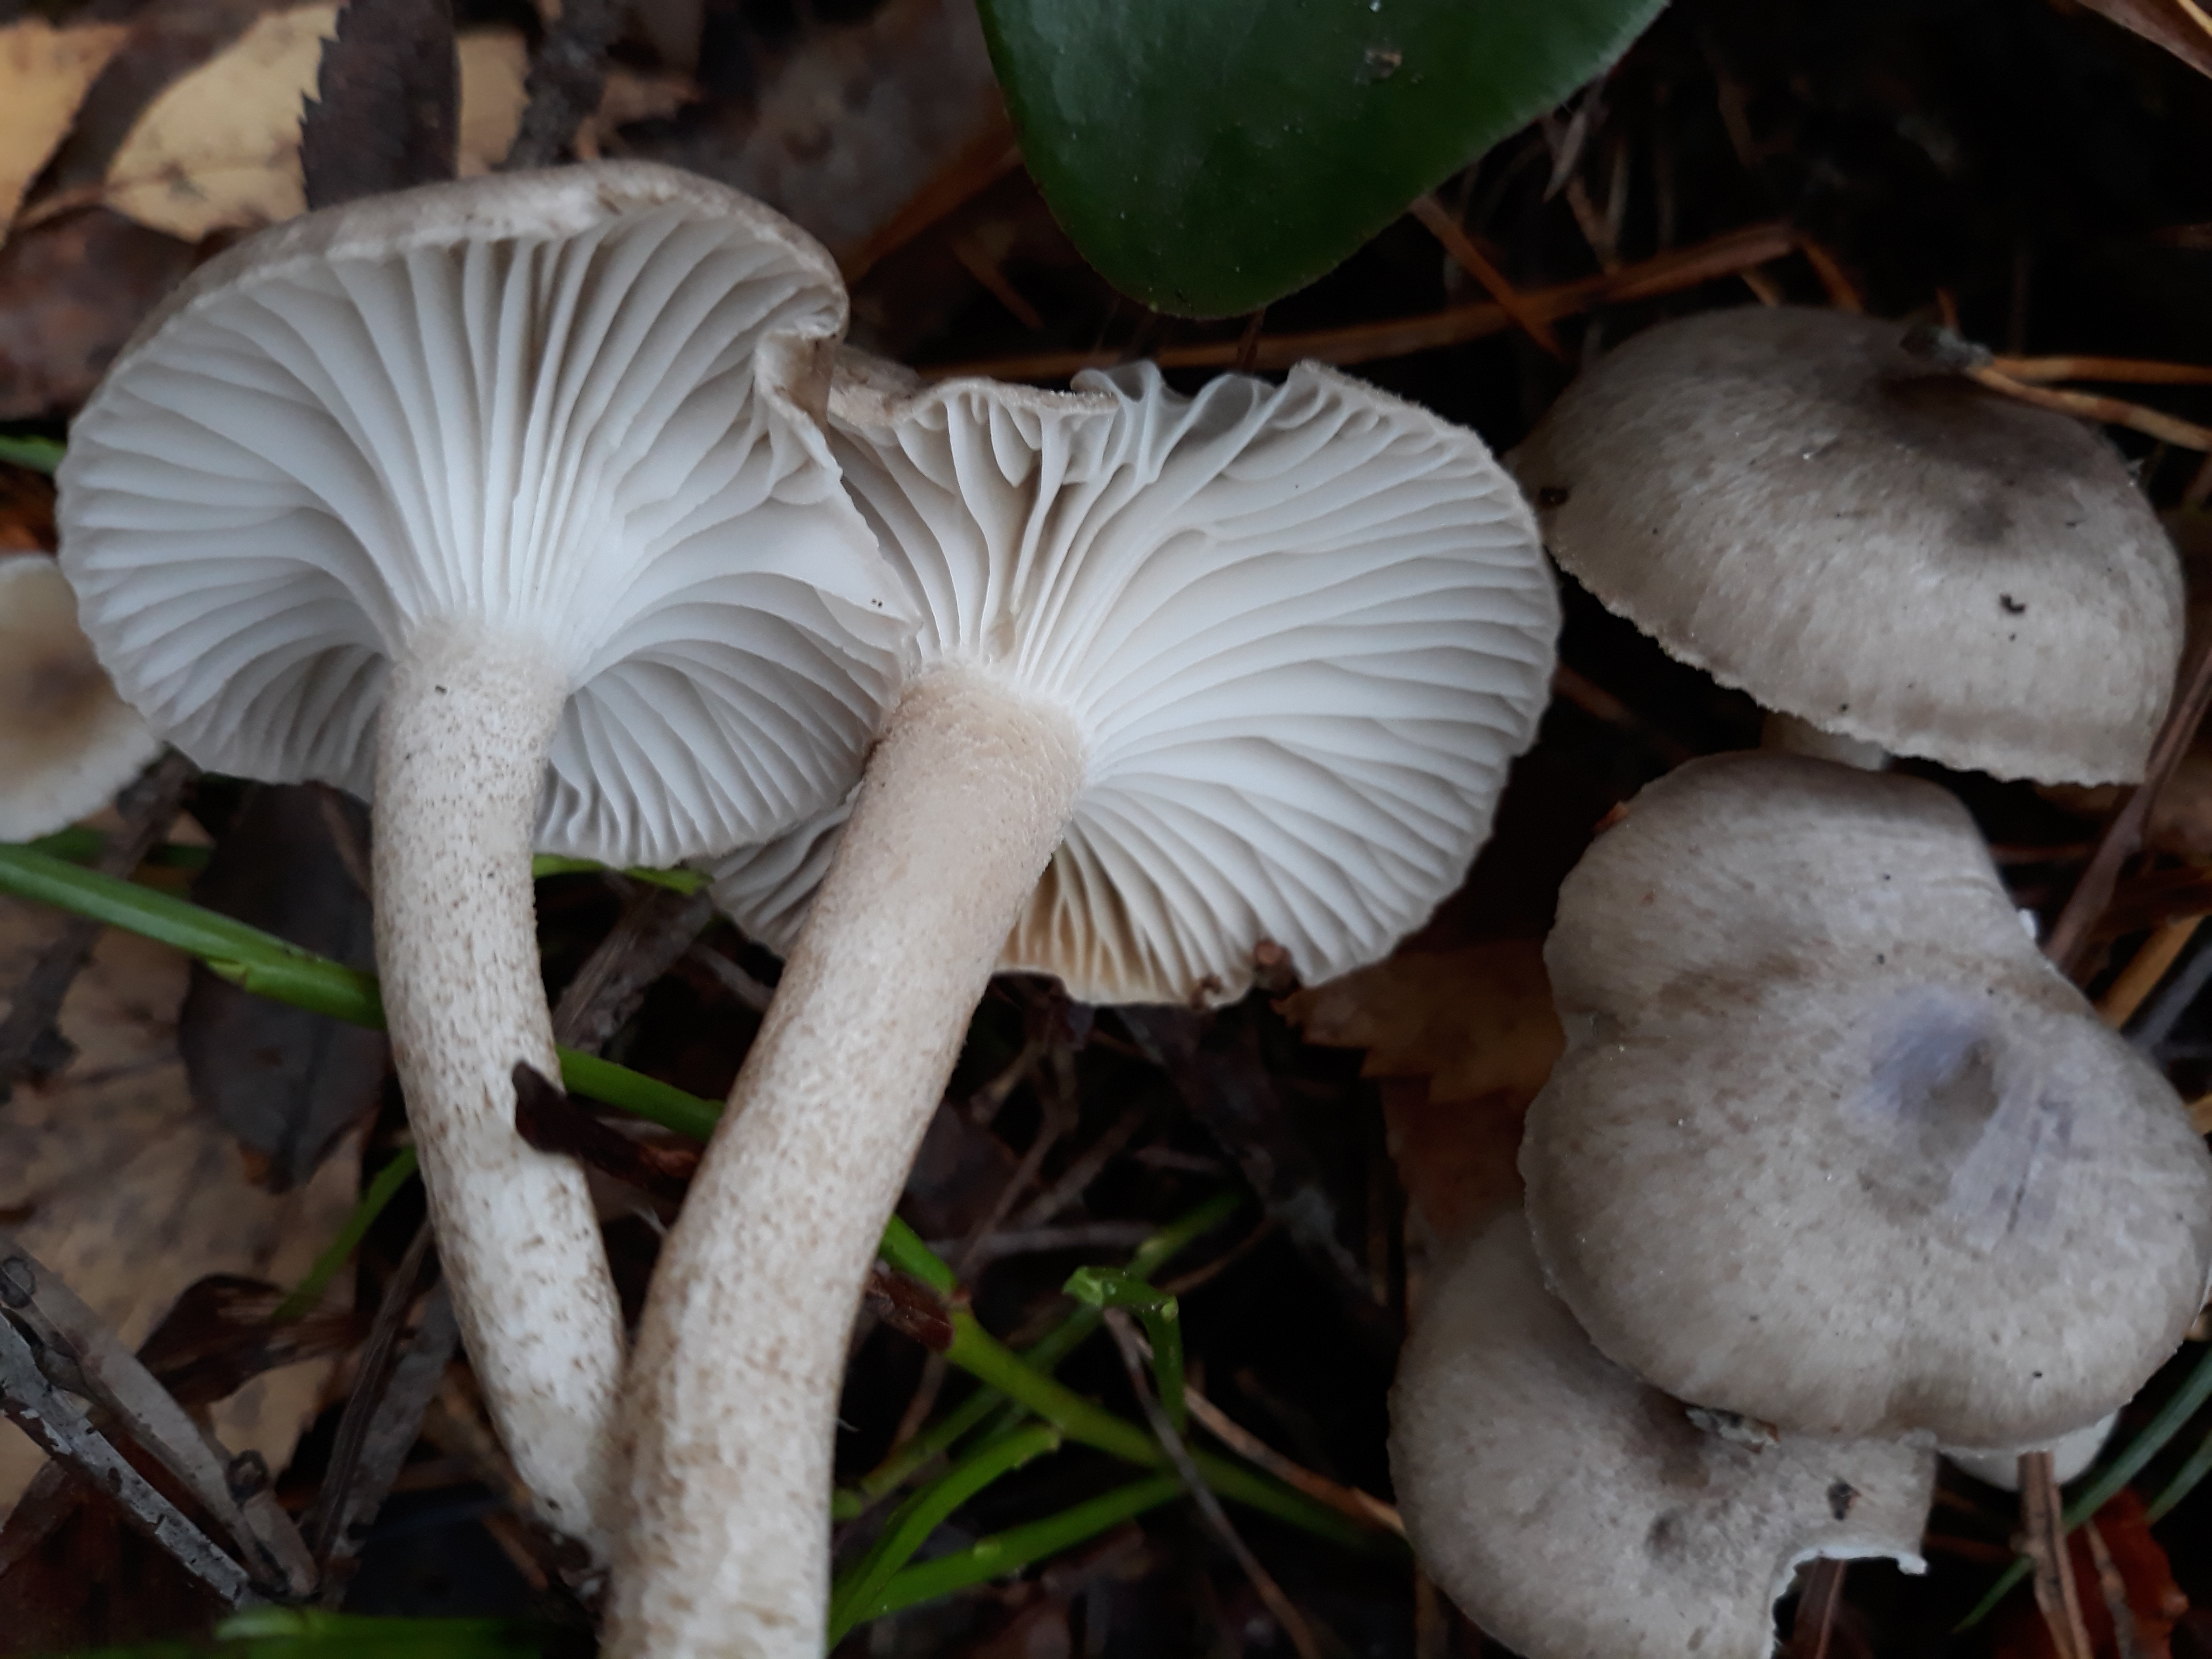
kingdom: Fungi
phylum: Basidiomycota
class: Agaricomycetes
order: Agaricales
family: Hygrophoraceae
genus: Hygrophorus
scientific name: Hygrophorus pustulatus
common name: Blistered woodwax
